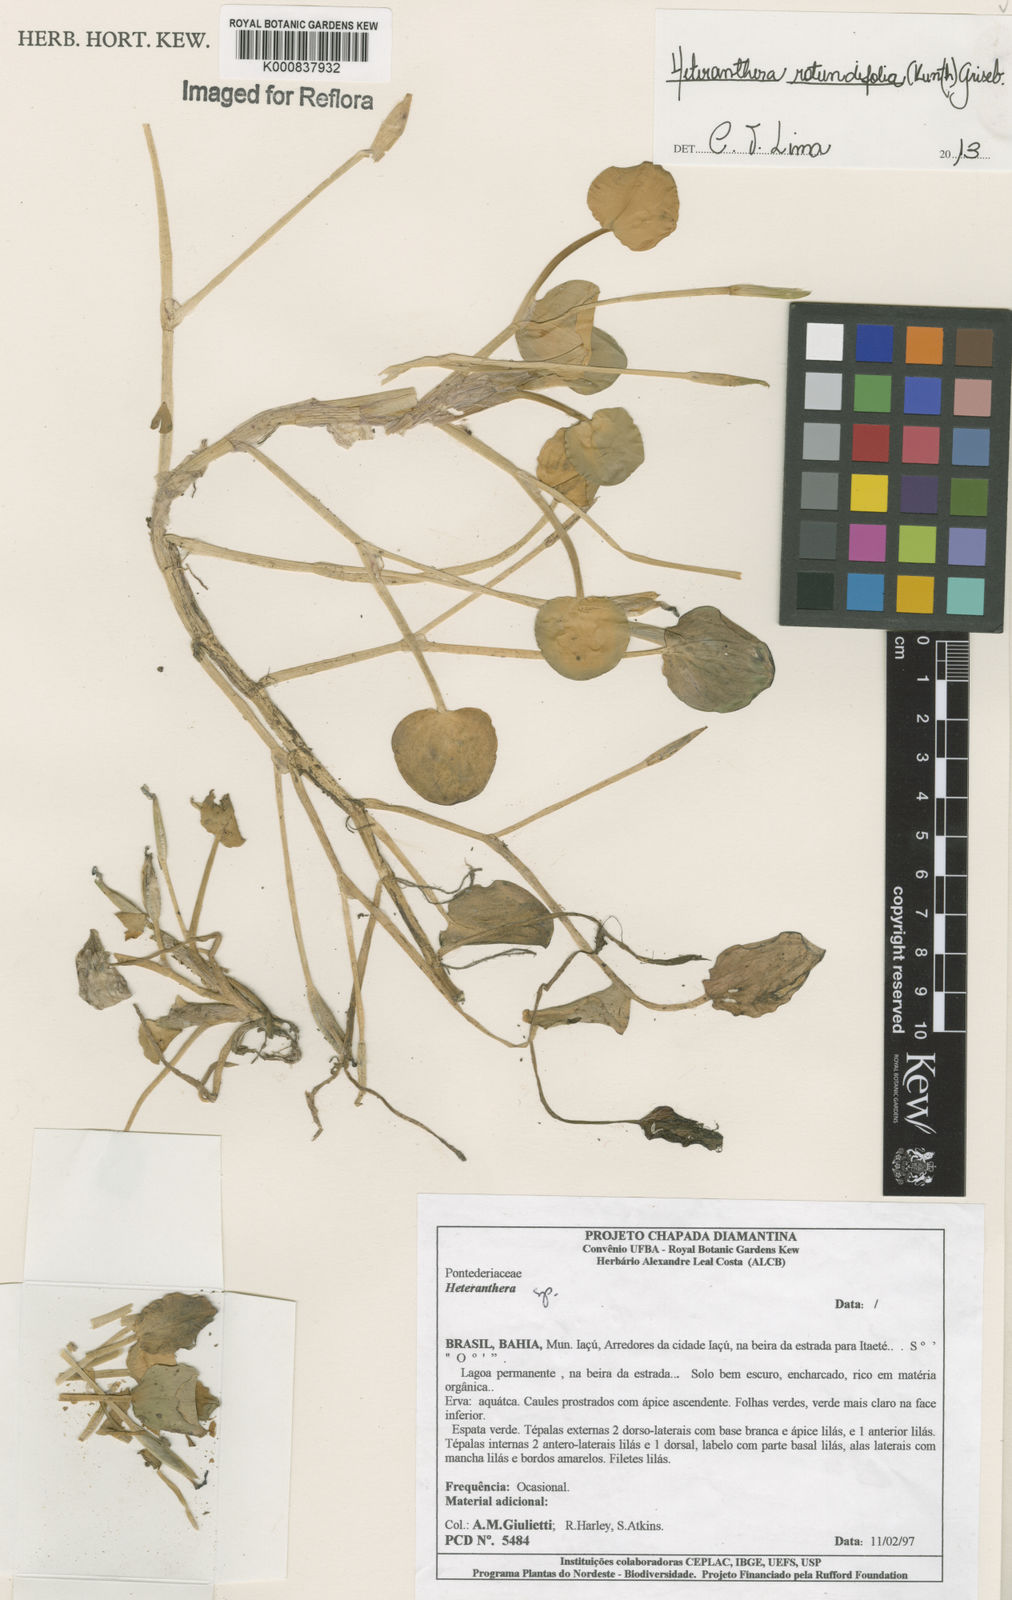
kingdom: Plantae
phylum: Tracheophyta
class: Liliopsida
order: Commelinales
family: Pontederiaceae
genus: Heteranthera
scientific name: Heteranthera rotundifolia
